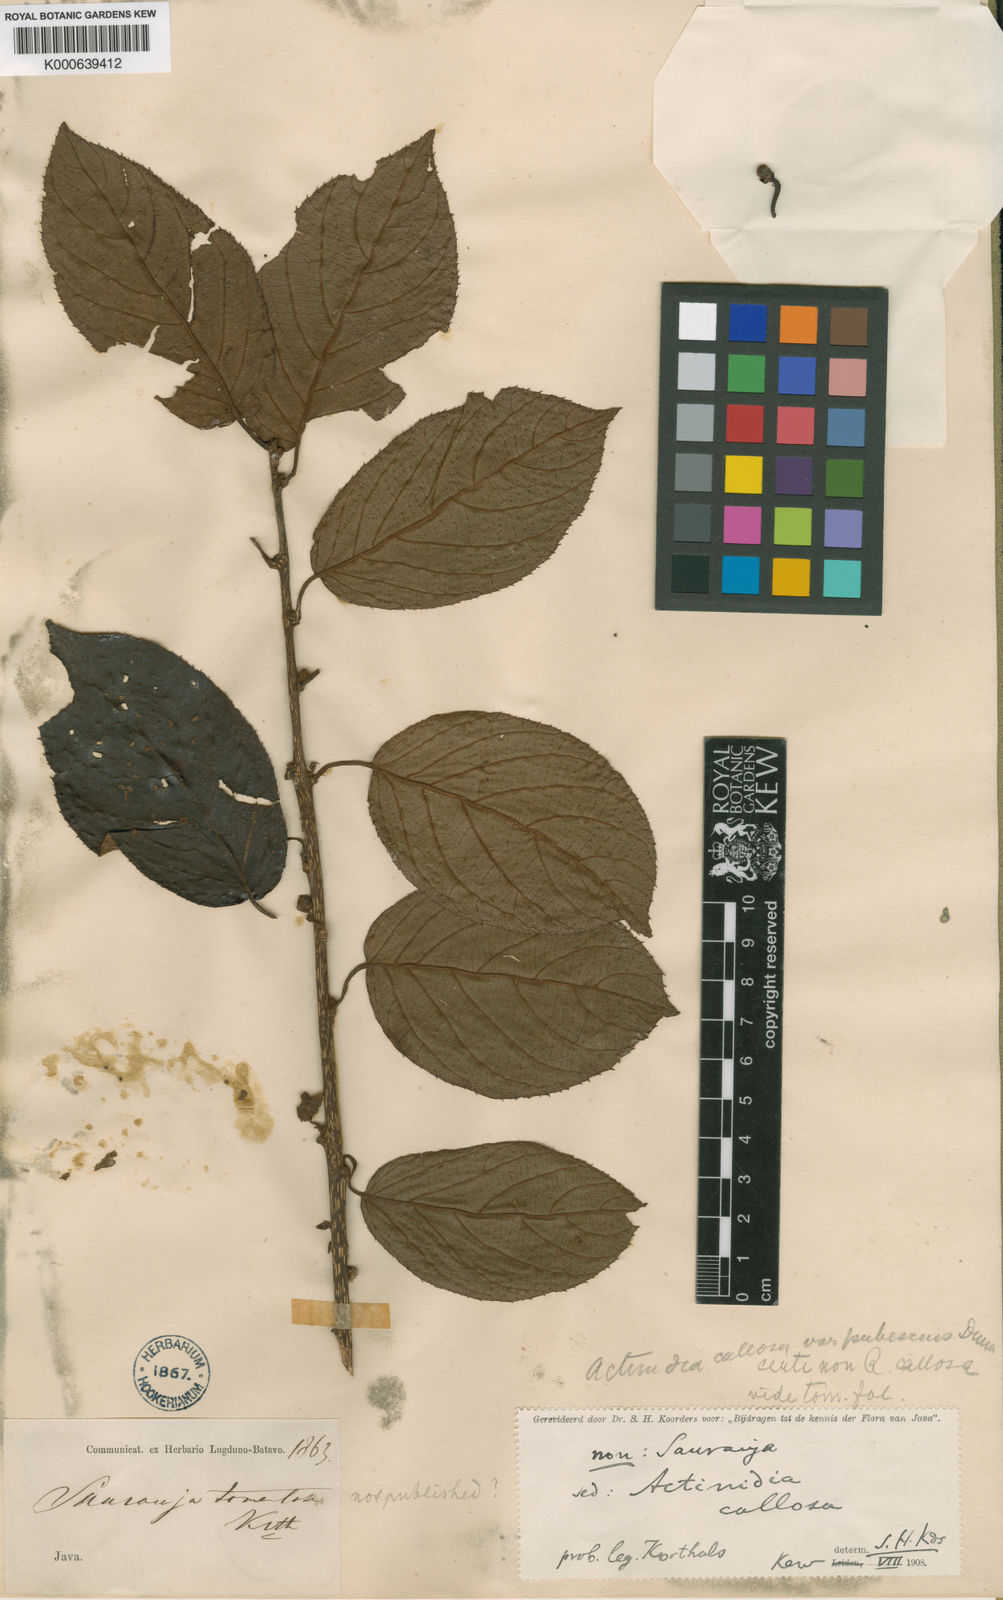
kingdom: Plantae
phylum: Tracheophyta
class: Magnoliopsida
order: Ericales
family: Actinidiaceae
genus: Actinidia
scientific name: Actinidia indochinensis
